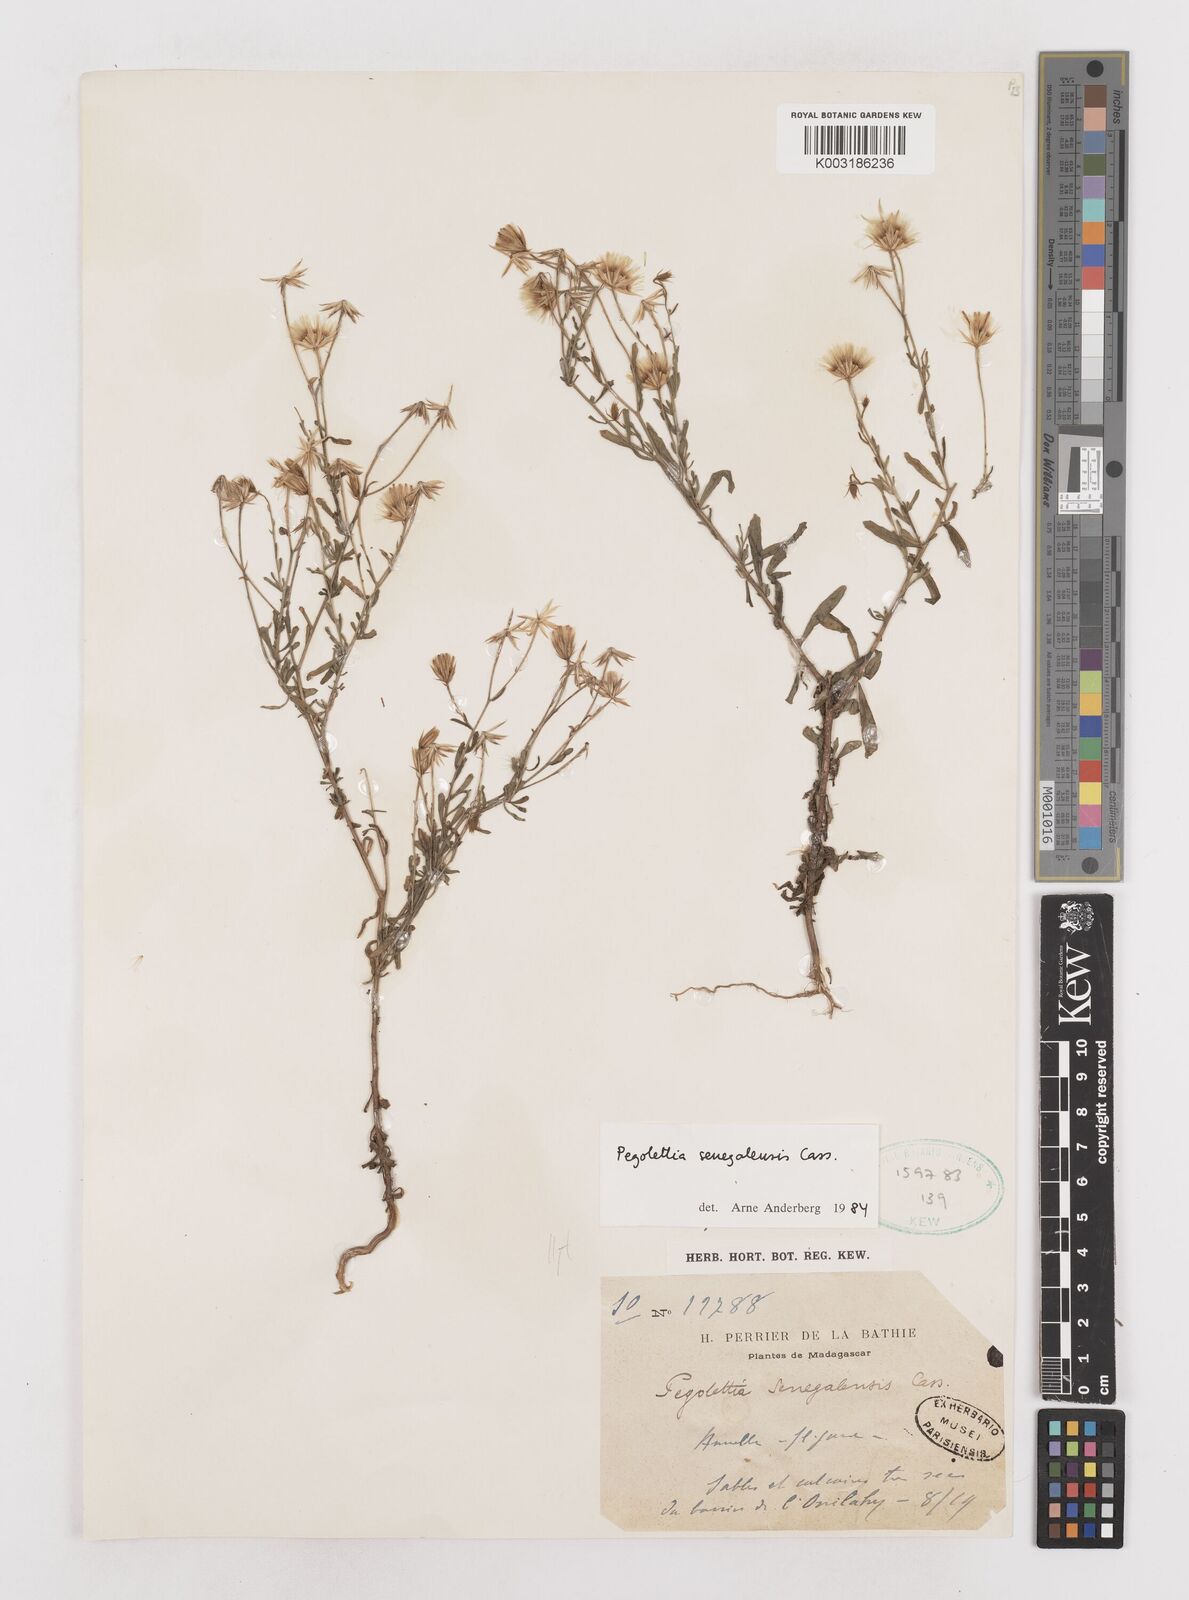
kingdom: Plantae
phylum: Tracheophyta
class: Magnoliopsida
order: Asterales
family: Asteraceae
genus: Pegolettia
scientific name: Pegolettia senegalensis
